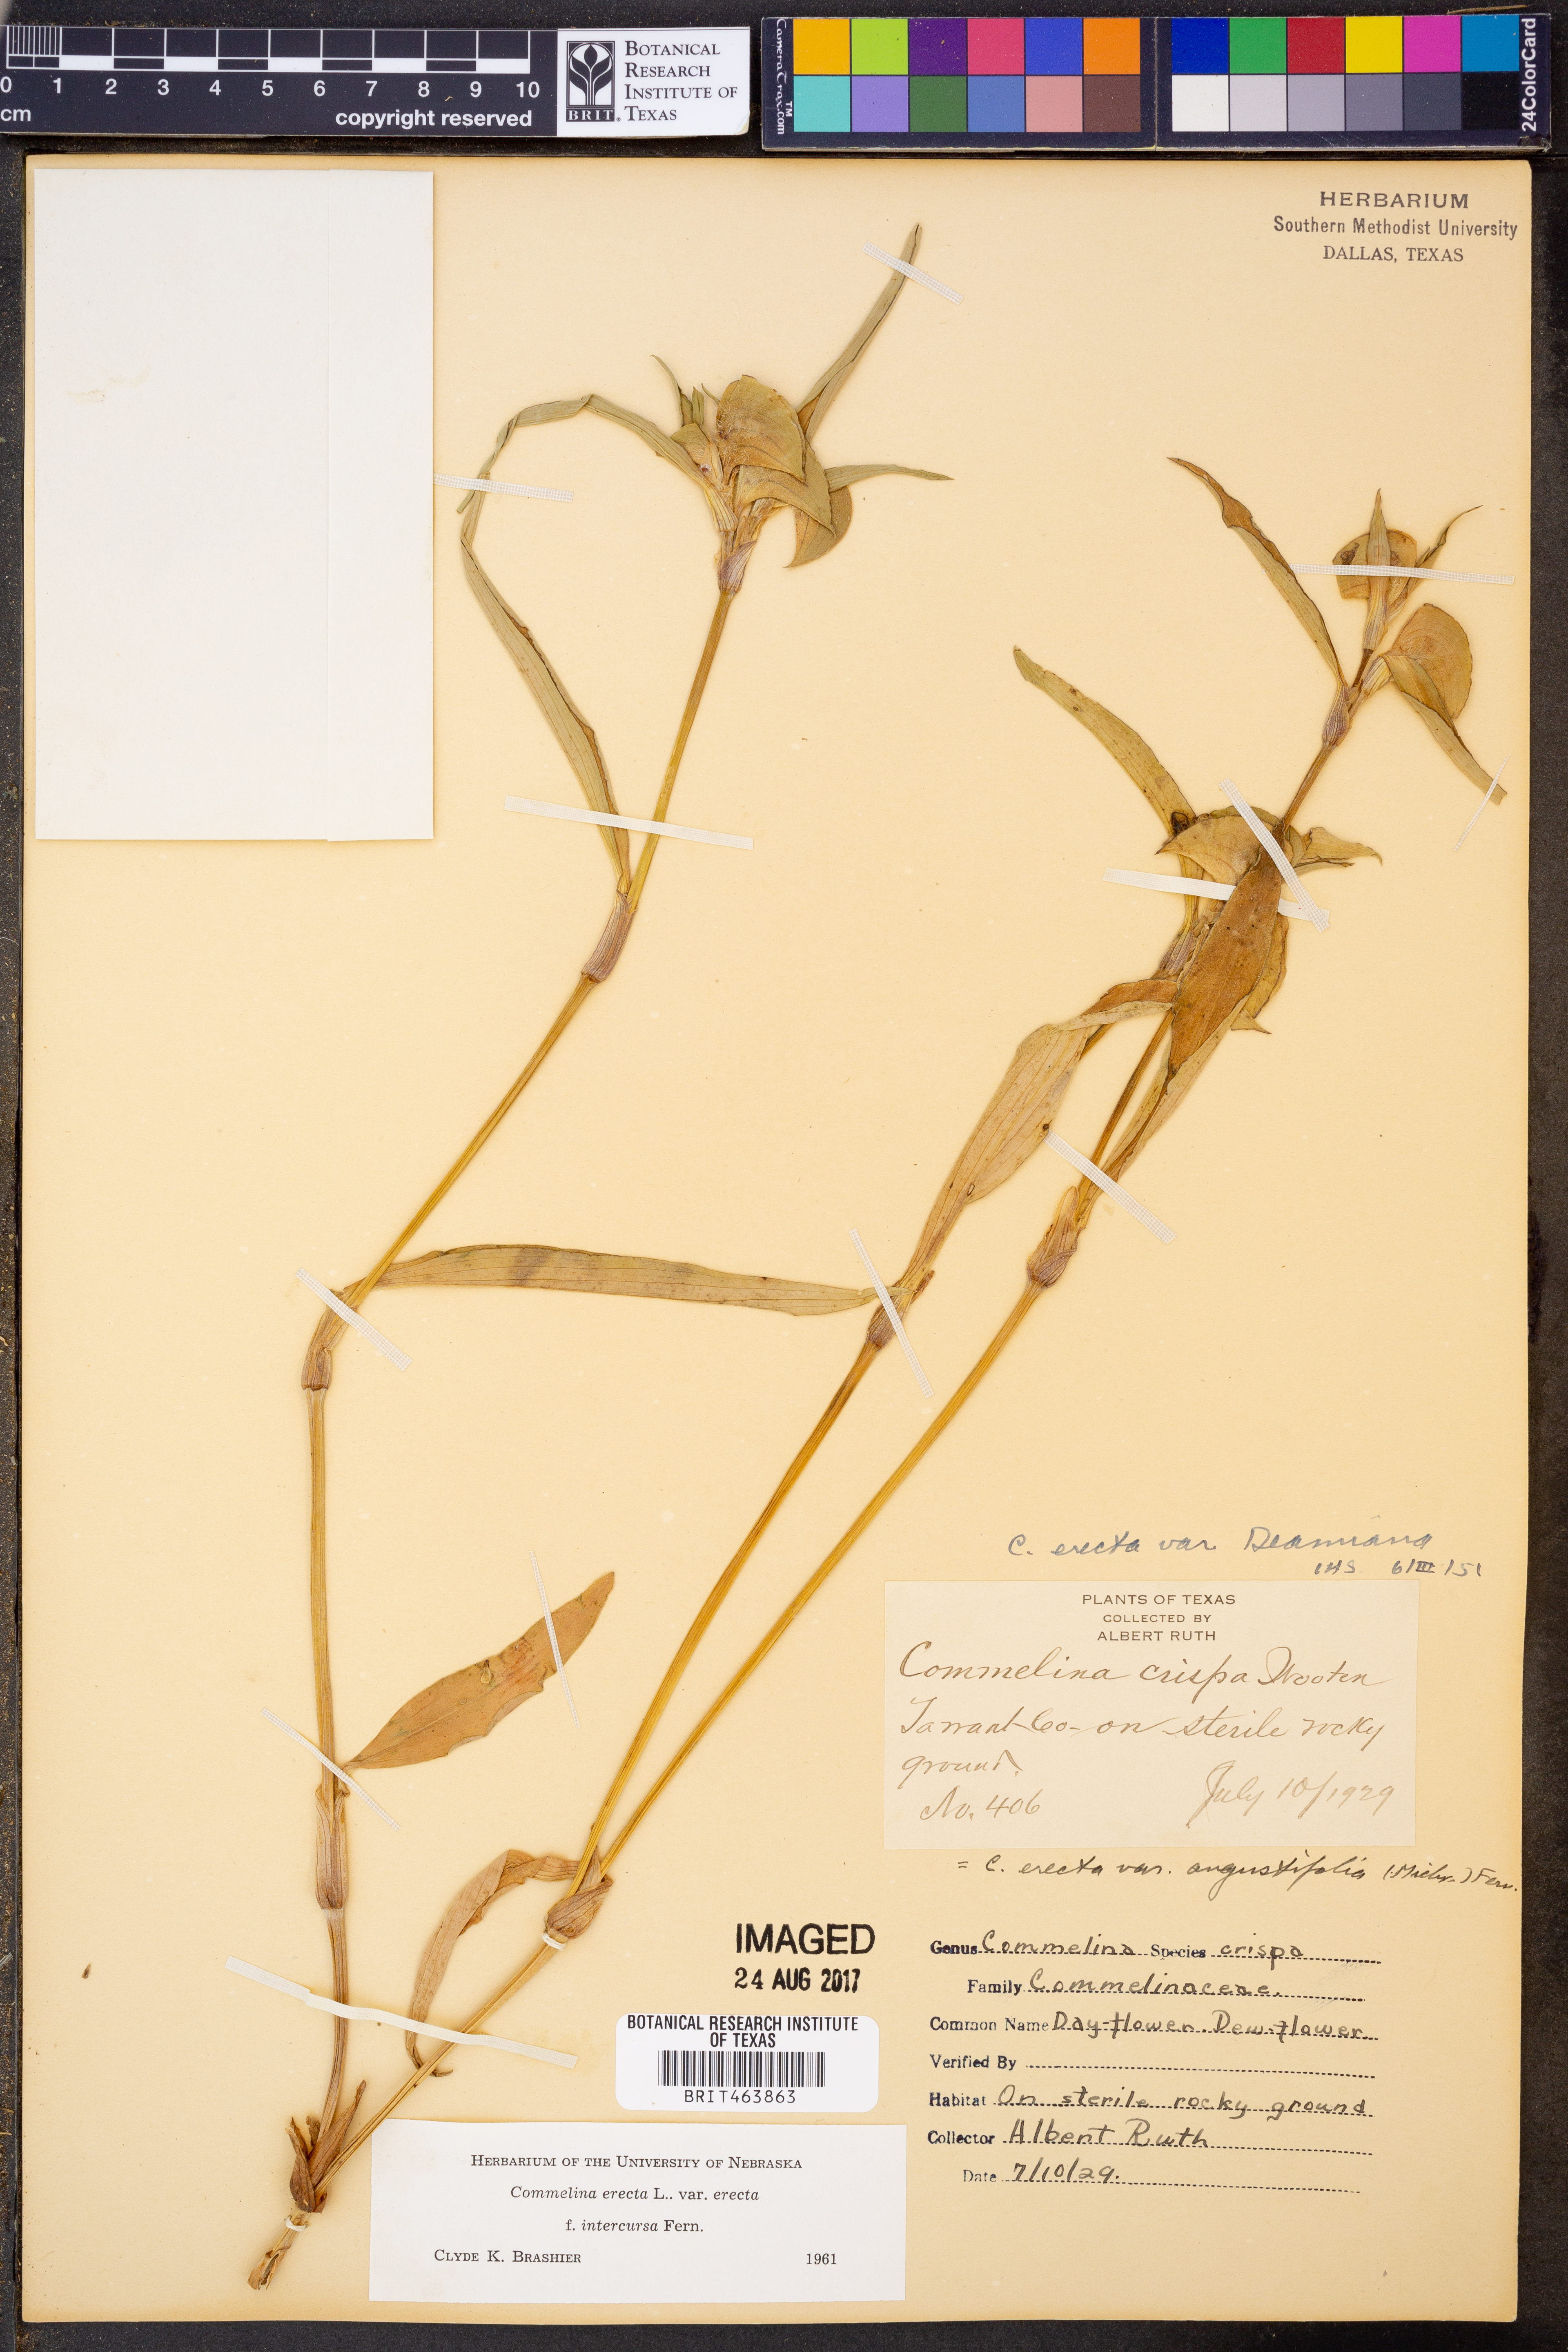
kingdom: Plantae
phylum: Tracheophyta
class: Liliopsida
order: Commelinales
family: Commelinaceae
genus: Commelina
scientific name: Commelina erecta
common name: Blousel blommetjie
